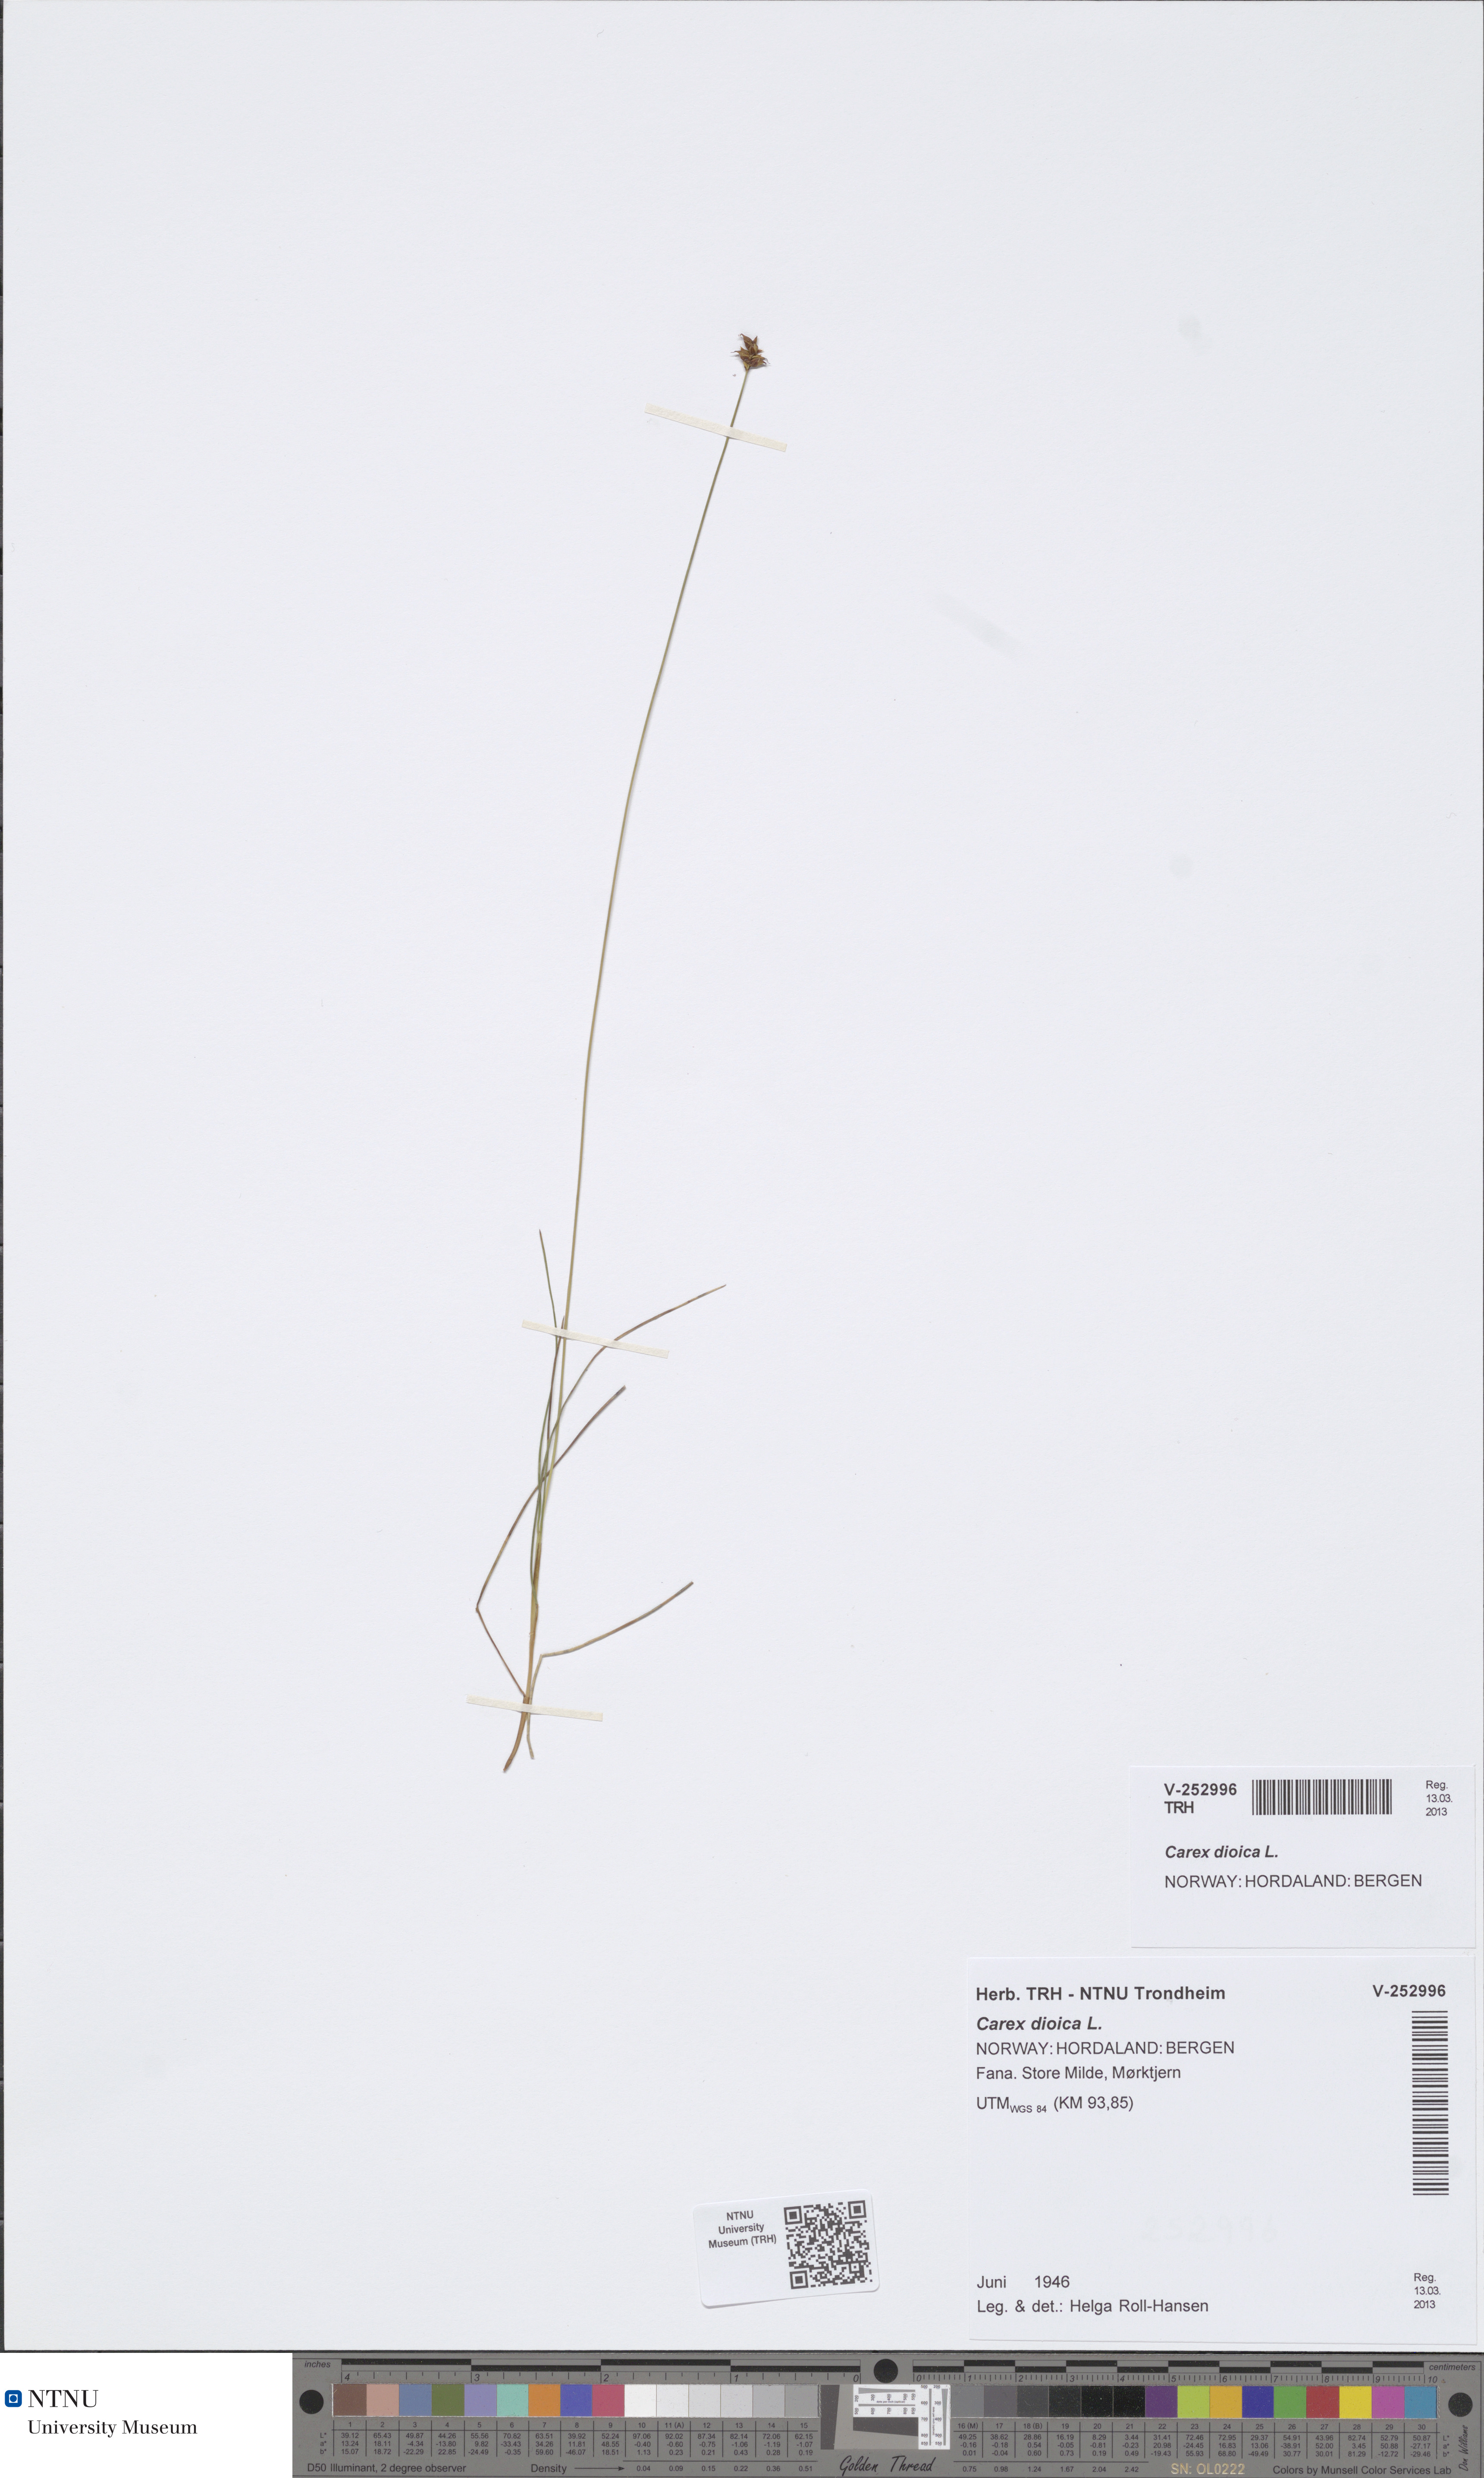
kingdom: Plantae
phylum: Tracheophyta
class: Liliopsida
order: Poales
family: Cyperaceae
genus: Carex
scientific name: Carex dioica
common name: Dioecious sedge
